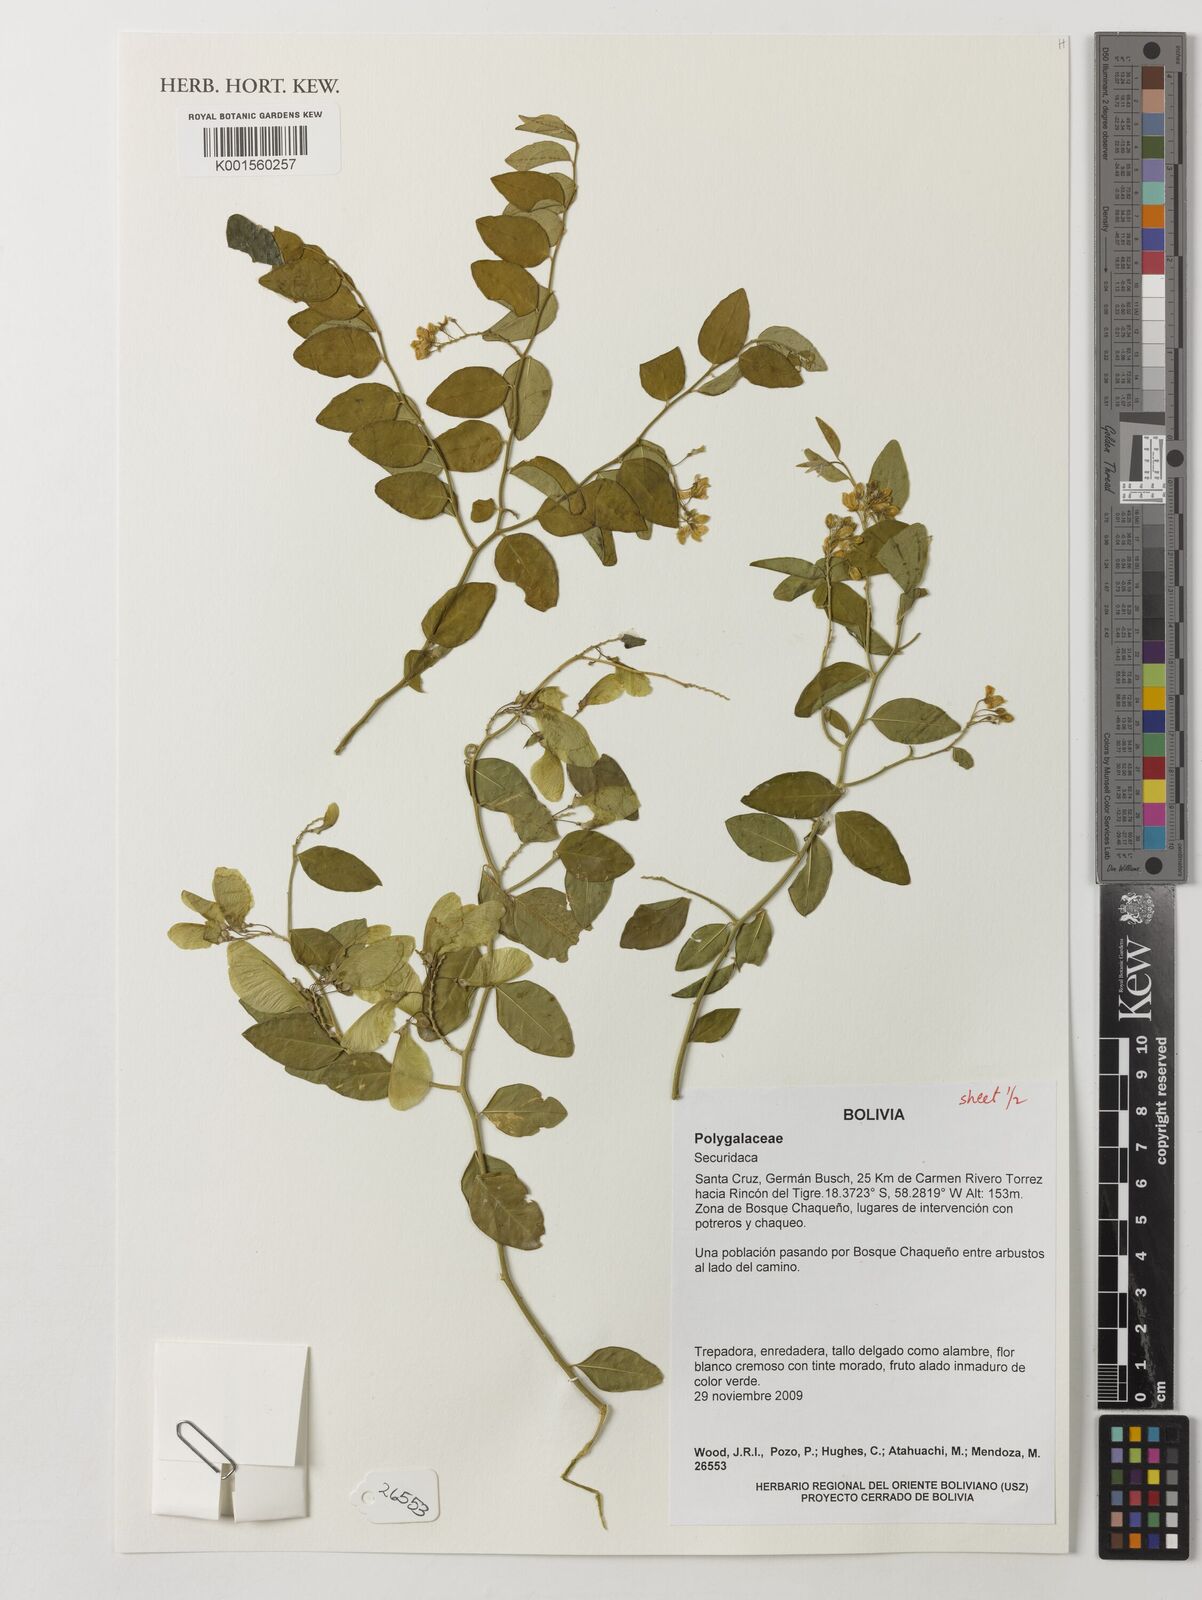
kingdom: Plantae
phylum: Tracheophyta
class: Magnoliopsida
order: Fabales
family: Polygalaceae
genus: Securidaca
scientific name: Securidaca
